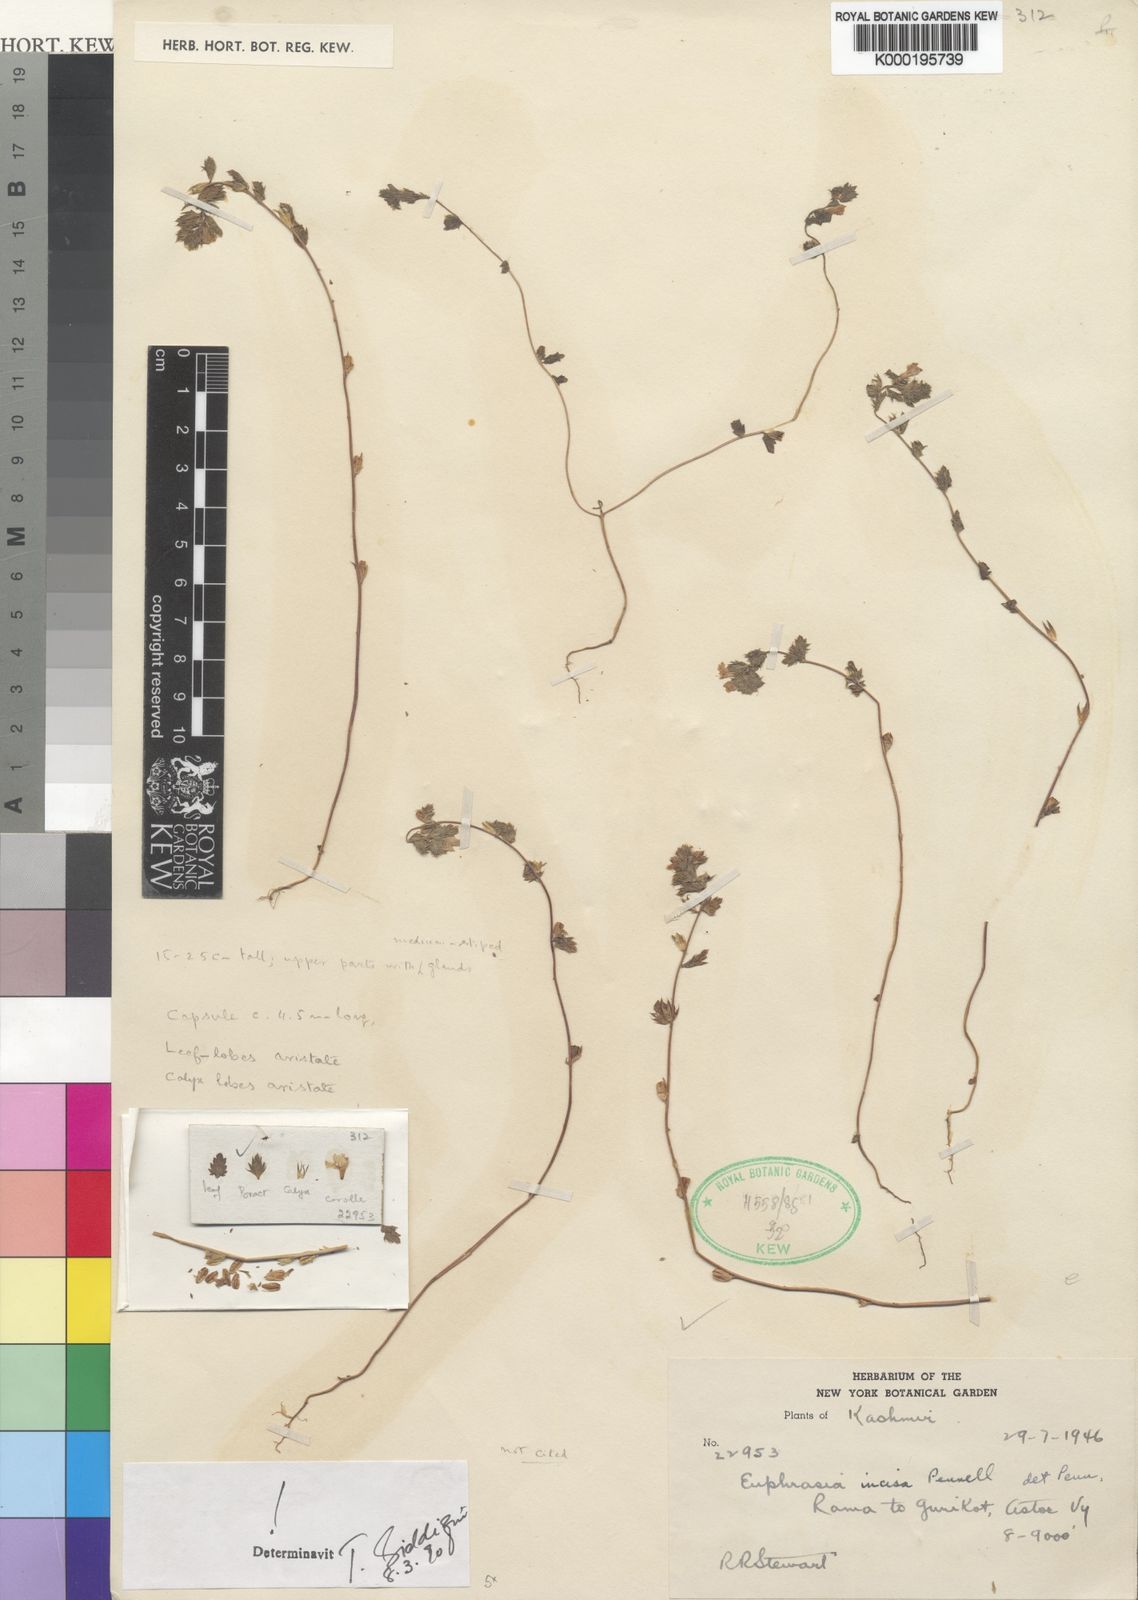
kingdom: Plantae
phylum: Tracheophyta
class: Magnoliopsida
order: Lamiales
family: Orobanchaceae
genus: Euphrasia
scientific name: Euphrasia incisa
